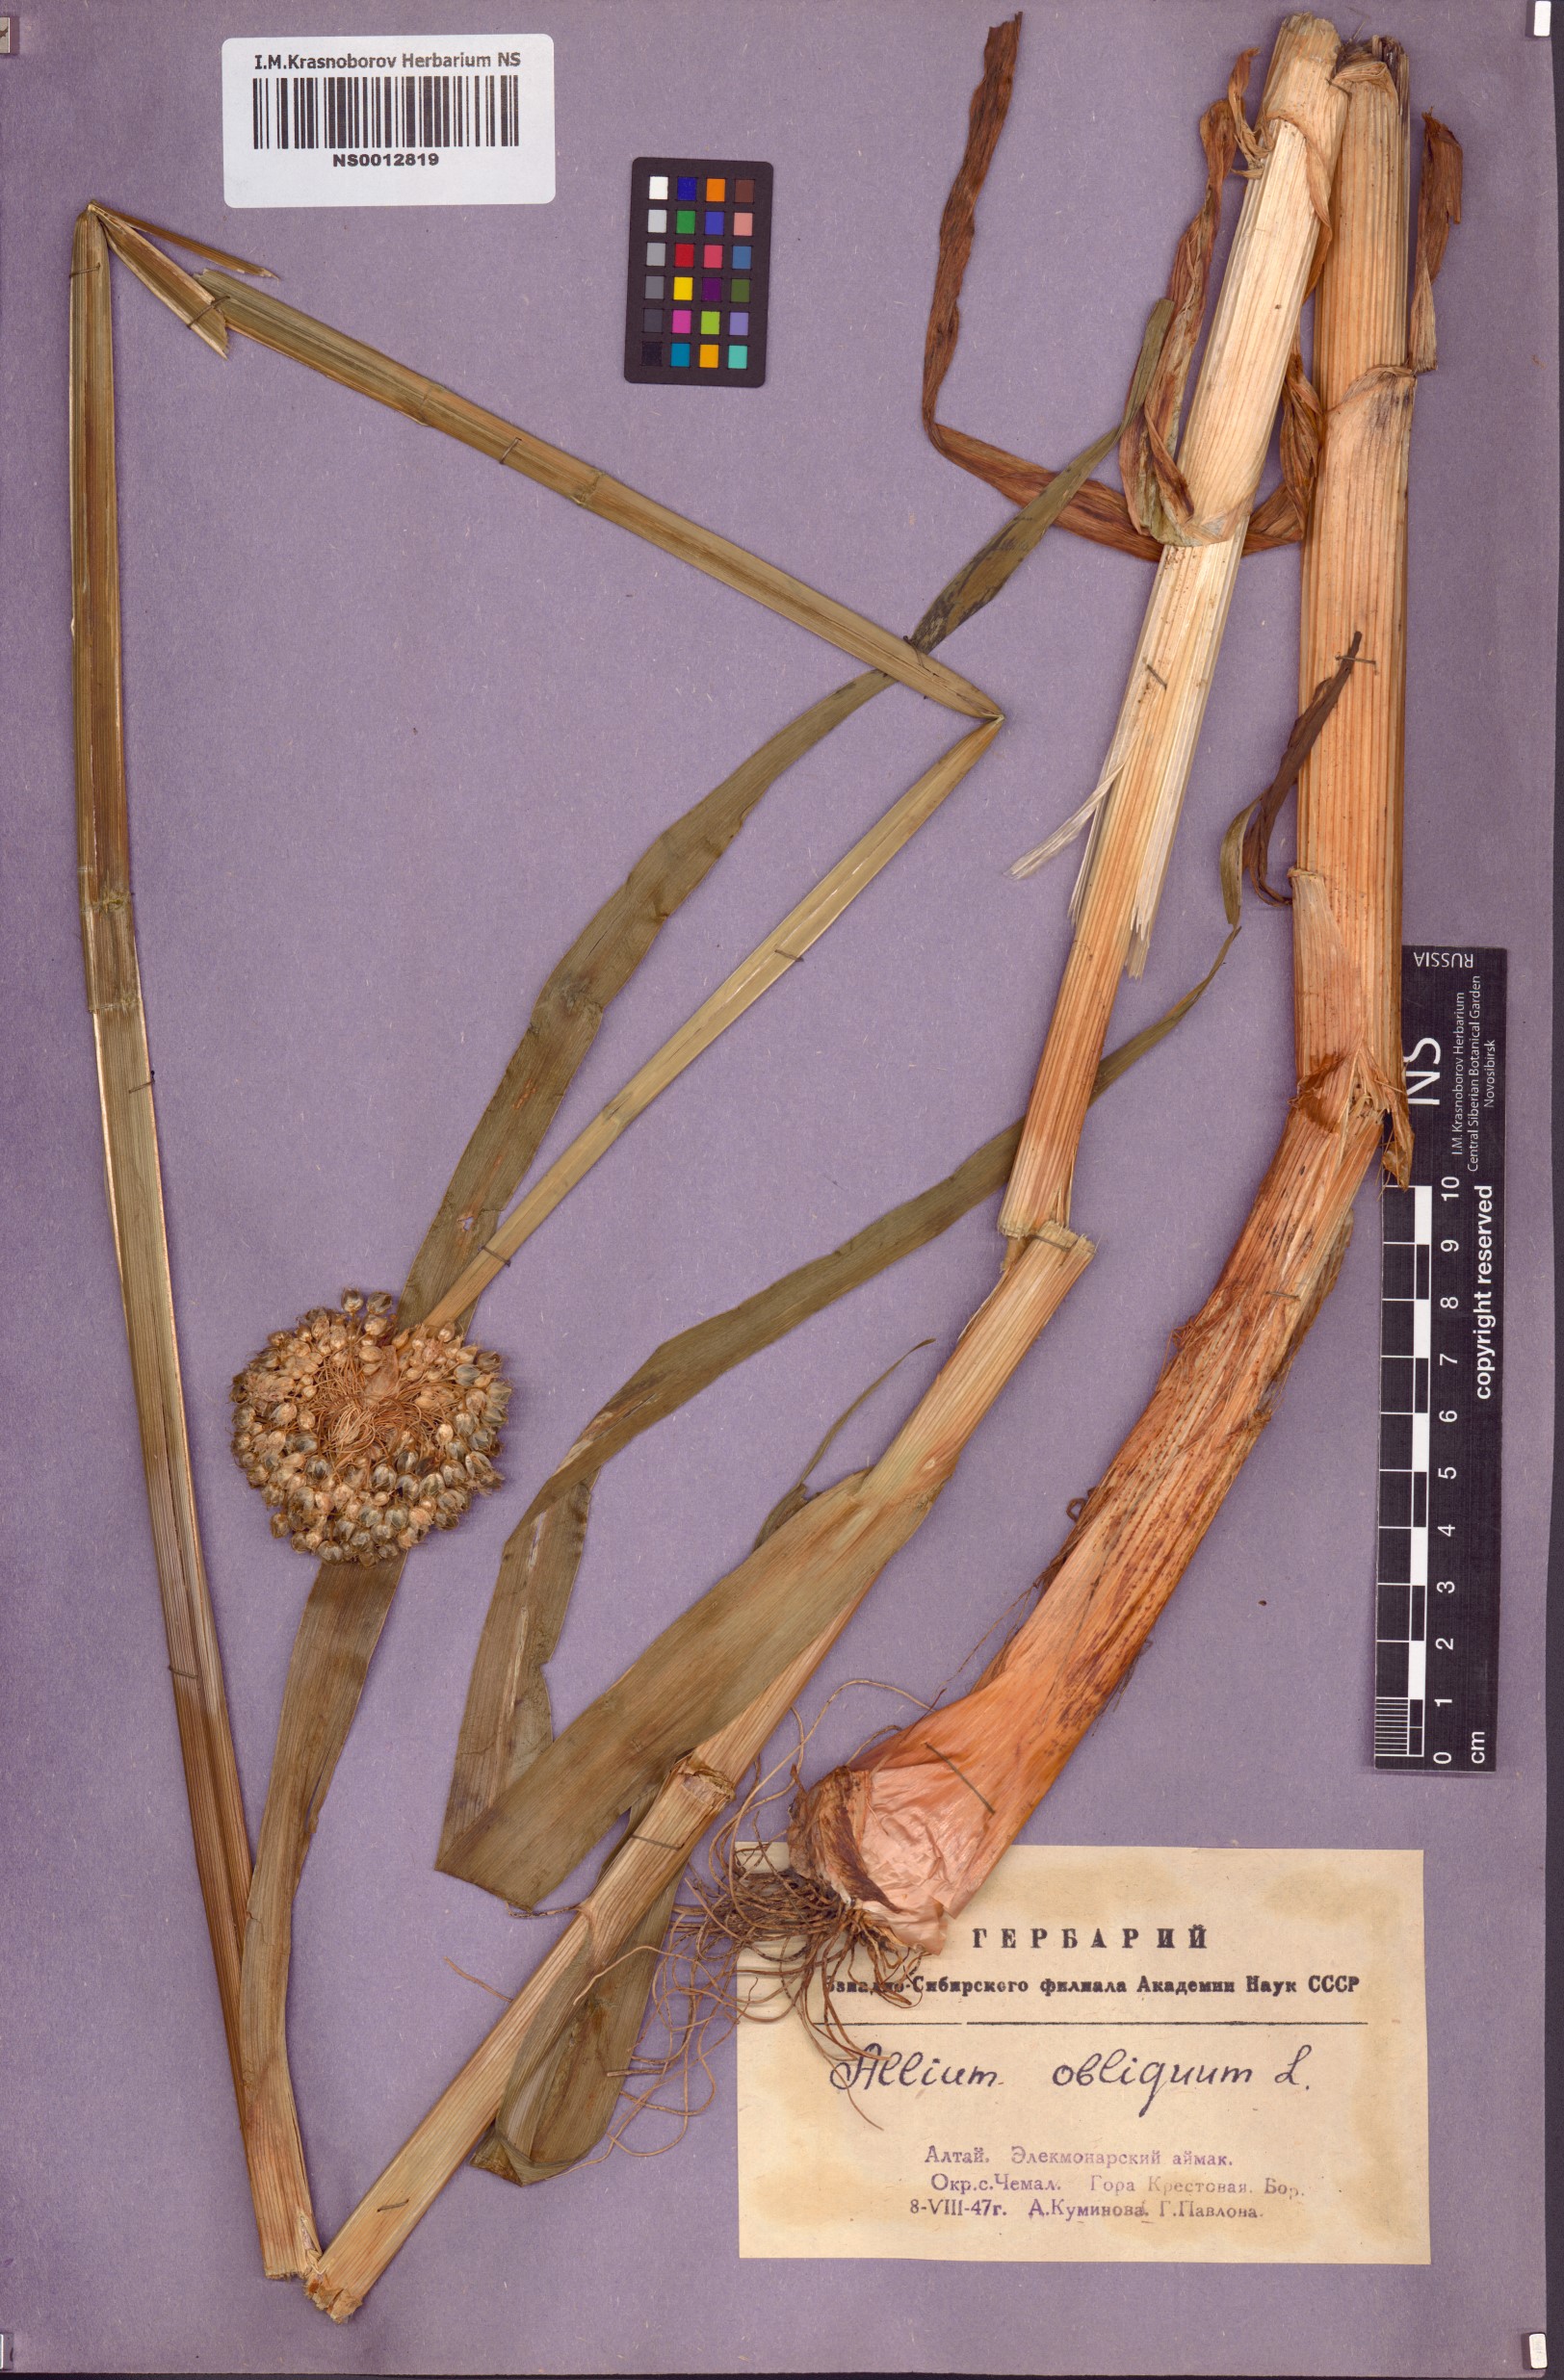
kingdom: Plantae
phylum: Tracheophyta
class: Liliopsida
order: Asparagales
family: Amaryllidaceae
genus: Allium
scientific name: Allium obliquum
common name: Oblique onion
